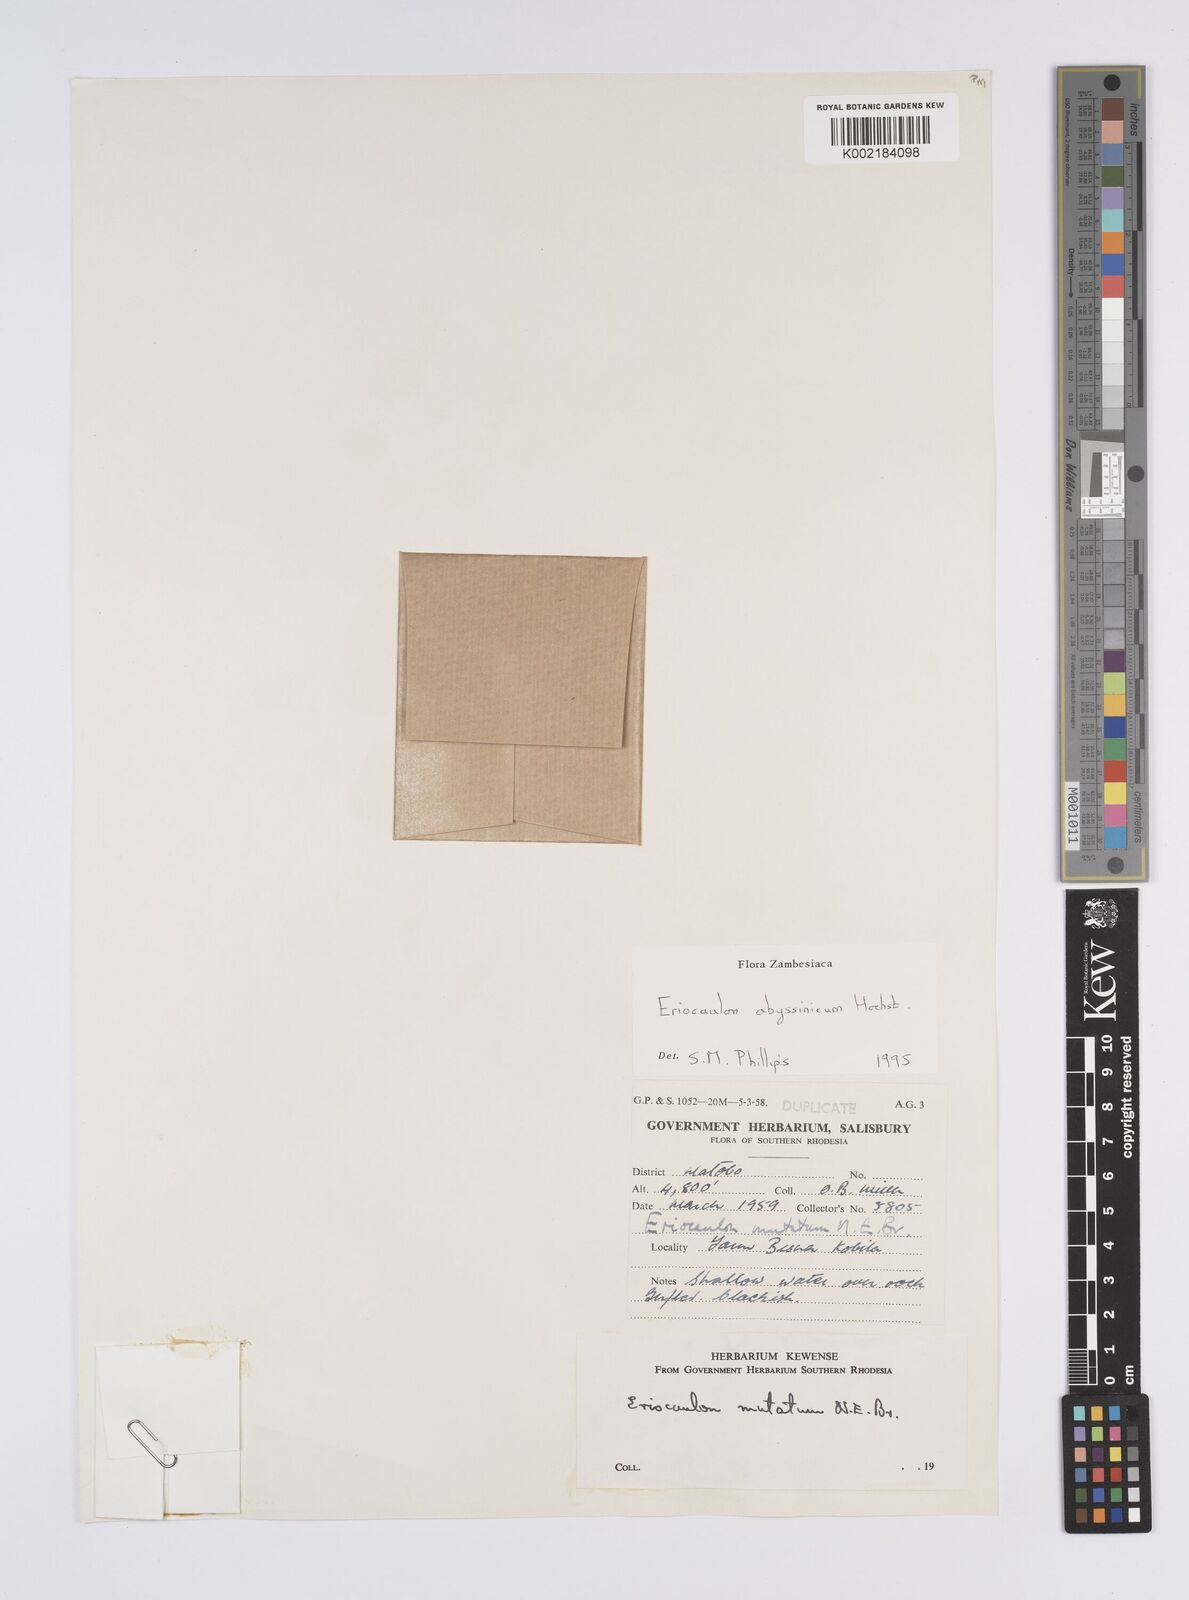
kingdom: Plantae
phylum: Tracheophyta
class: Liliopsida
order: Poales
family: Eriocaulaceae
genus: Eriocaulon
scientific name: Eriocaulon abyssinicum
